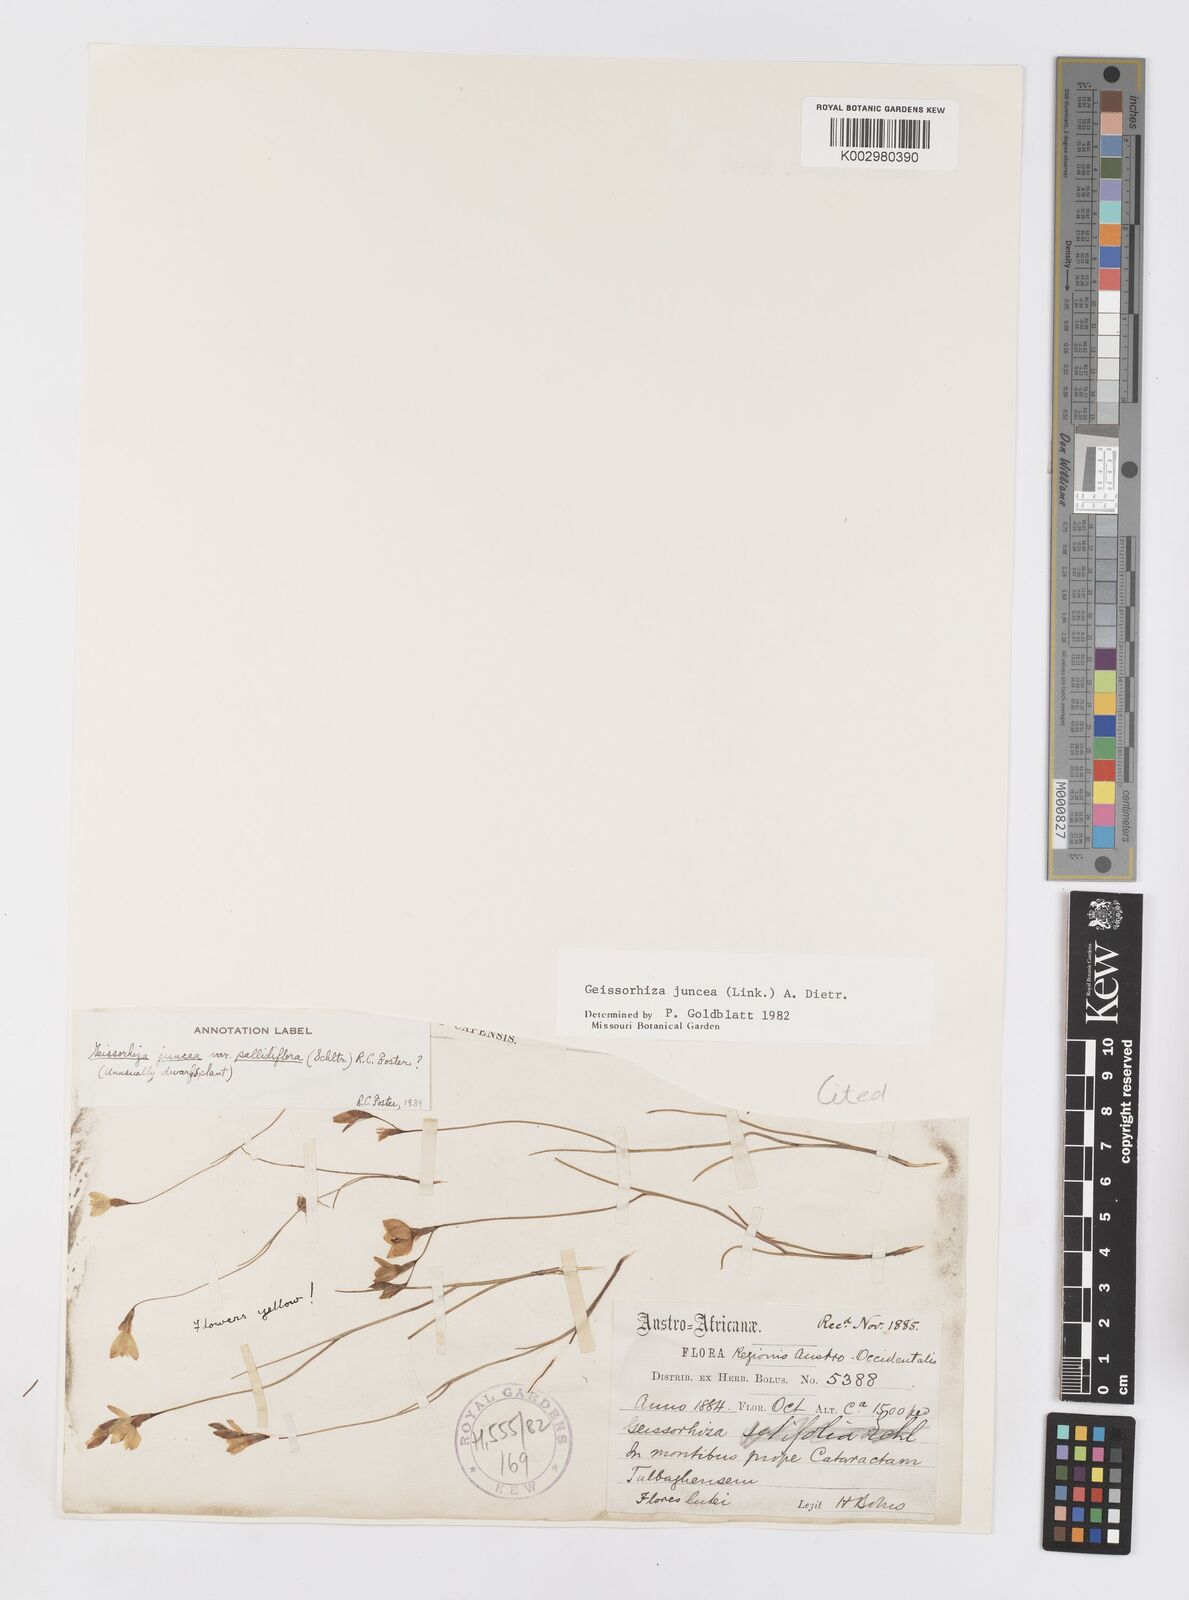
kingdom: Plantae
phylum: Tracheophyta
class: Liliopsida
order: Asparagales
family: Iridaceae
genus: Geissorhiza
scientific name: Geissorhiza juncea
